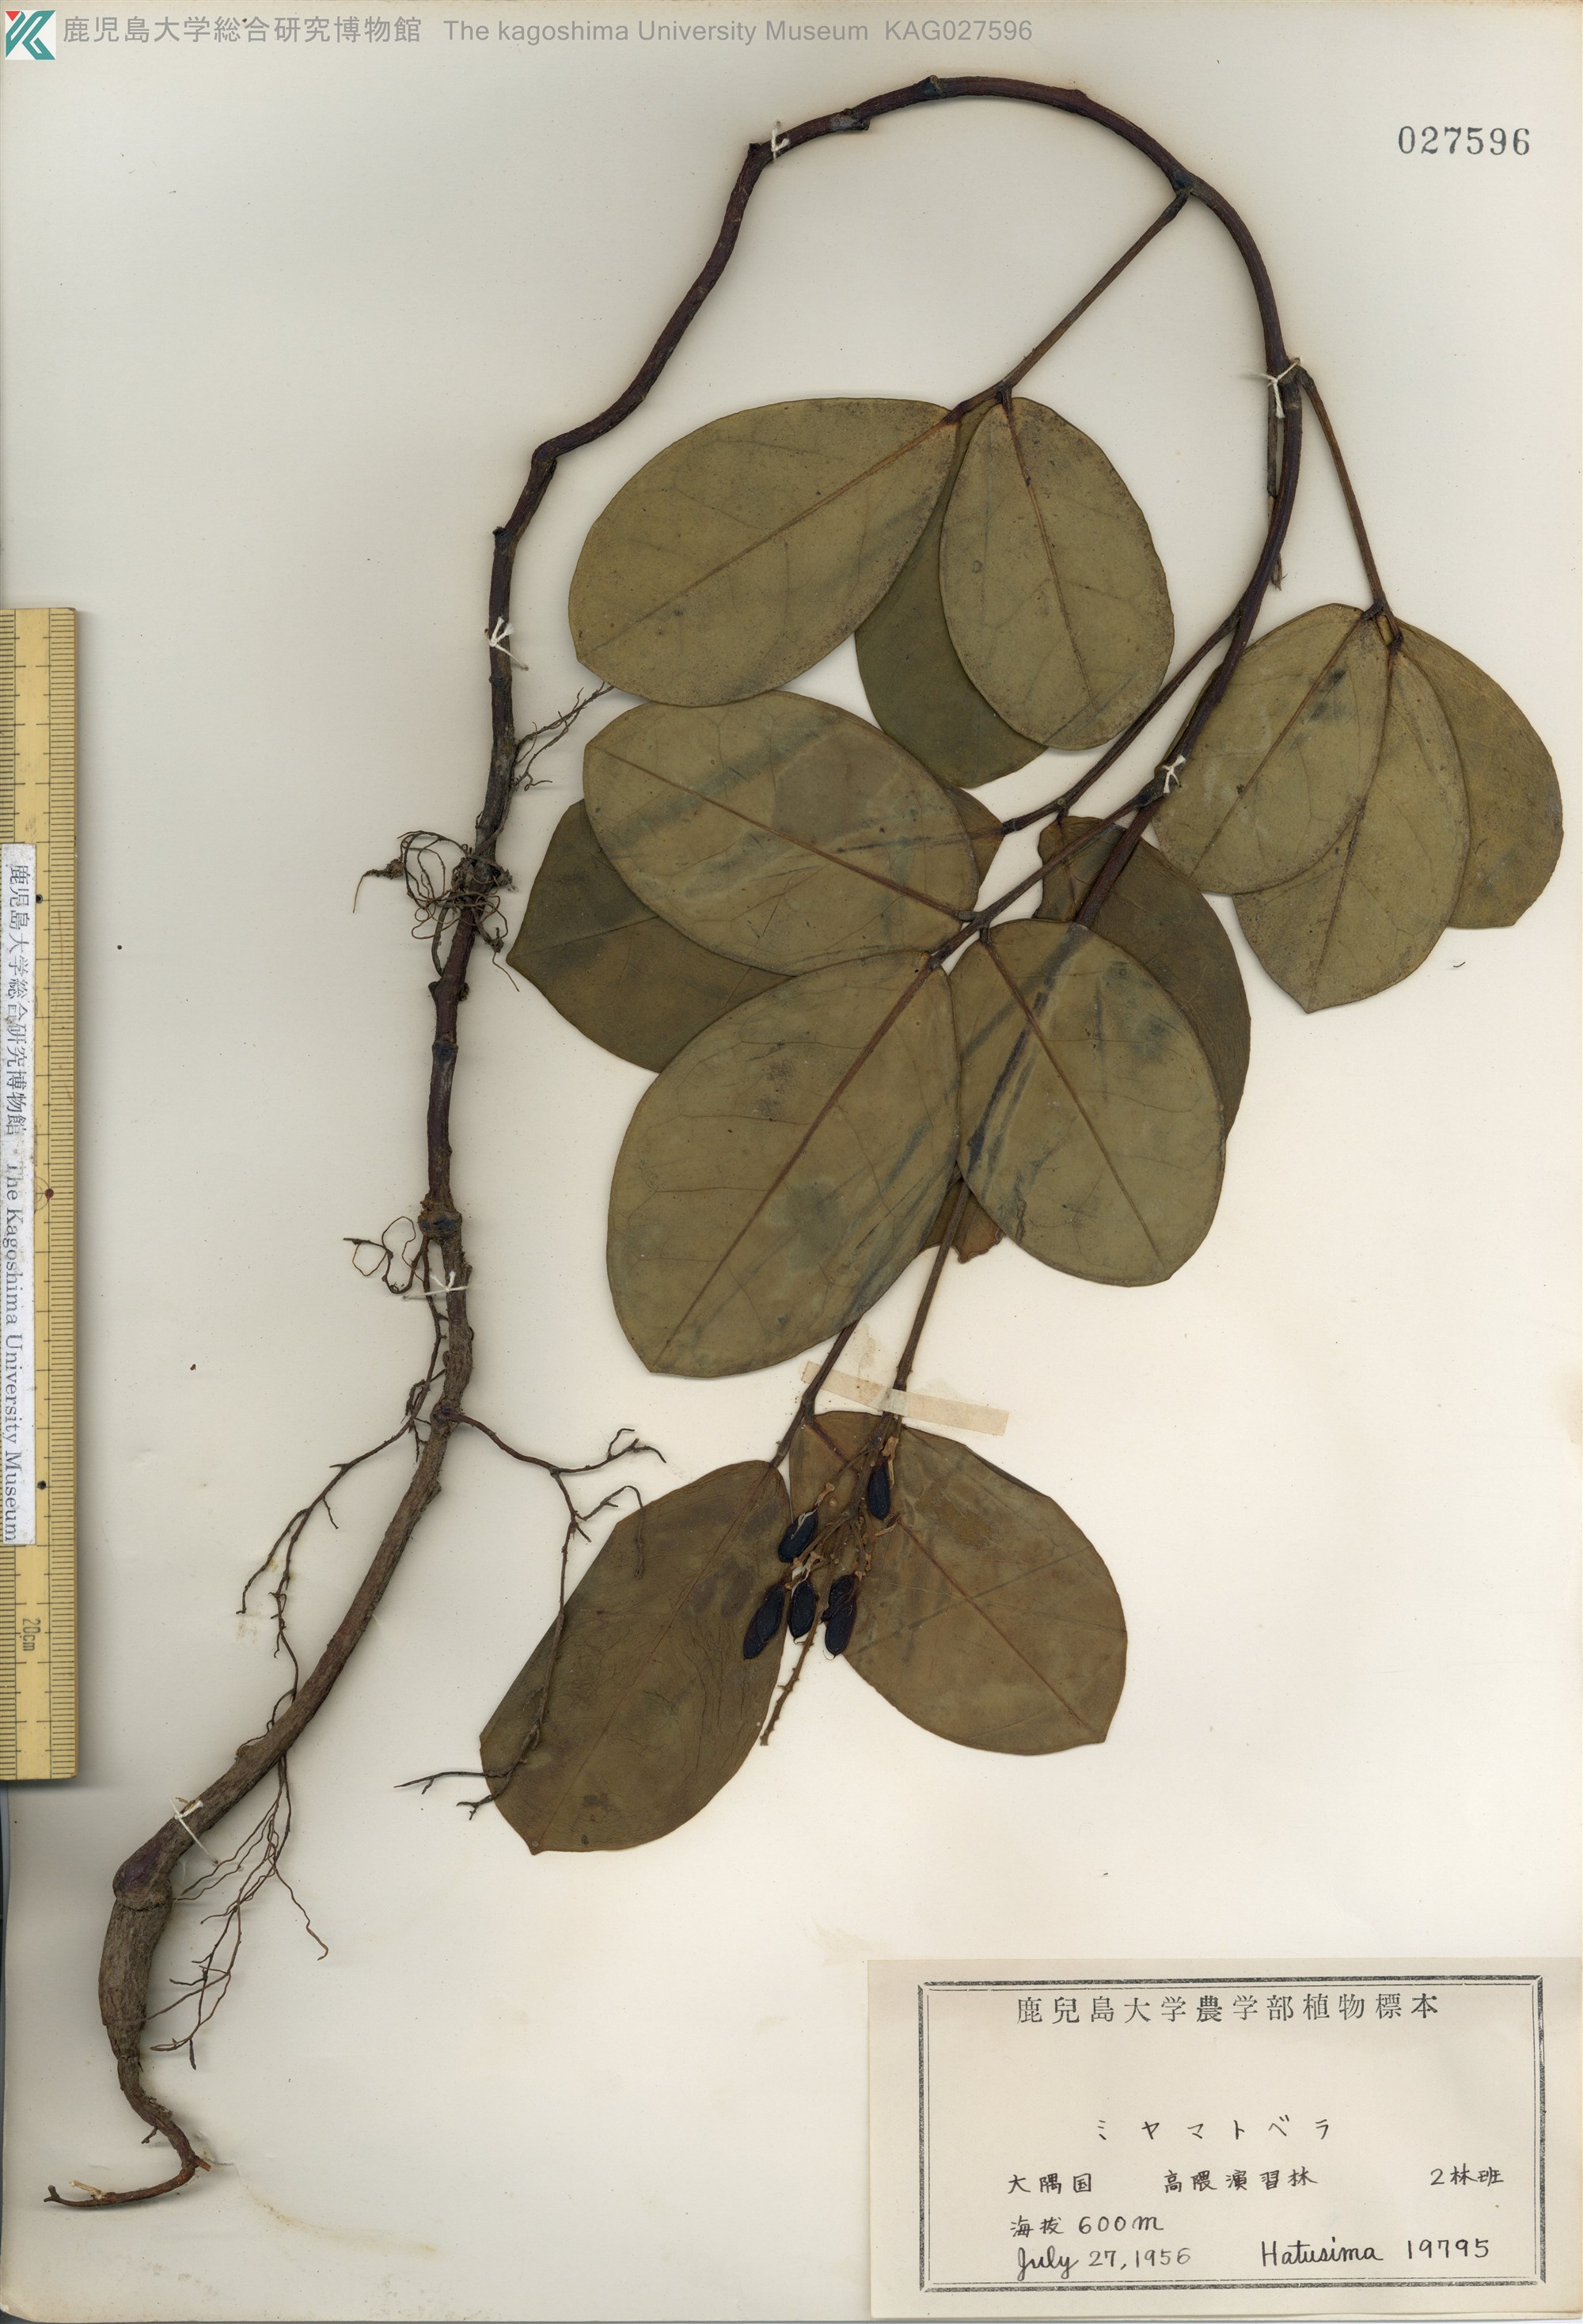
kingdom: Plantae
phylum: Tracheophyta
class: Magnoliopsida
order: Fabales
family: Fabaceae
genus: Euchresta
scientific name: Euchresta japonica
